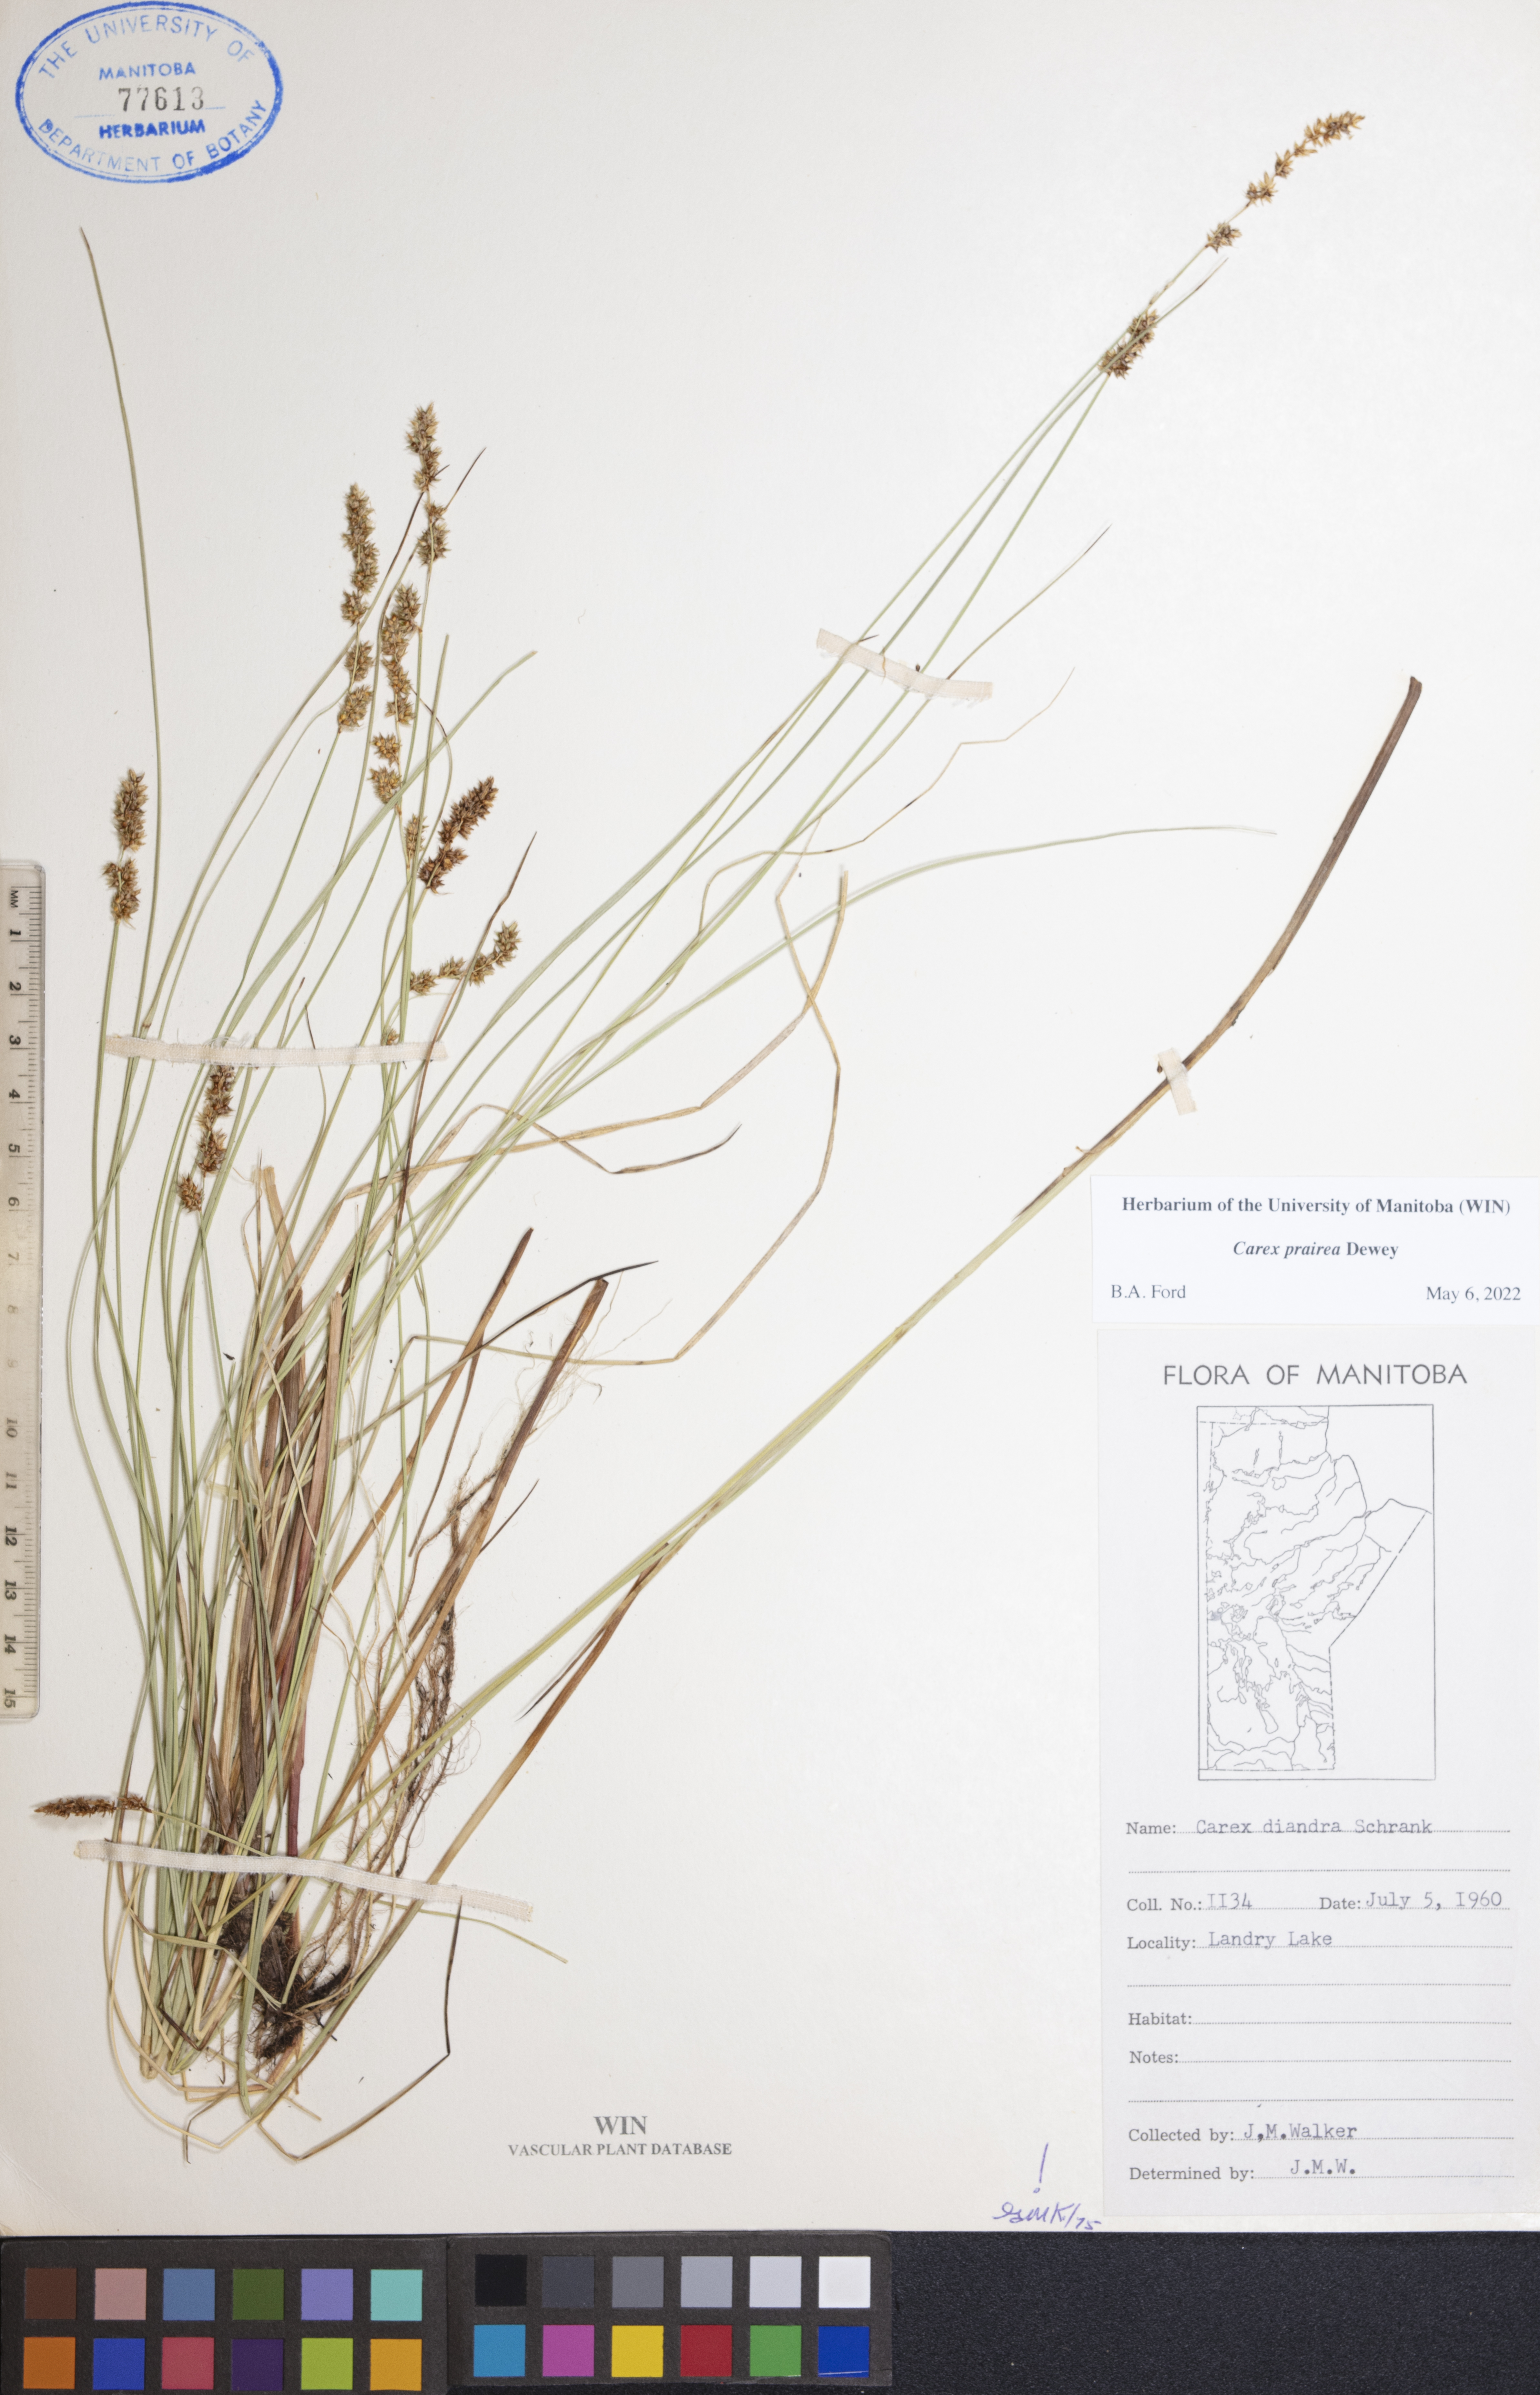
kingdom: Plantae
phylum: Tracheophyta
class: Liliopsida
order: Poales
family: Cyperaceae
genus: Carex
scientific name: Carex prairea
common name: Prairie sedge
